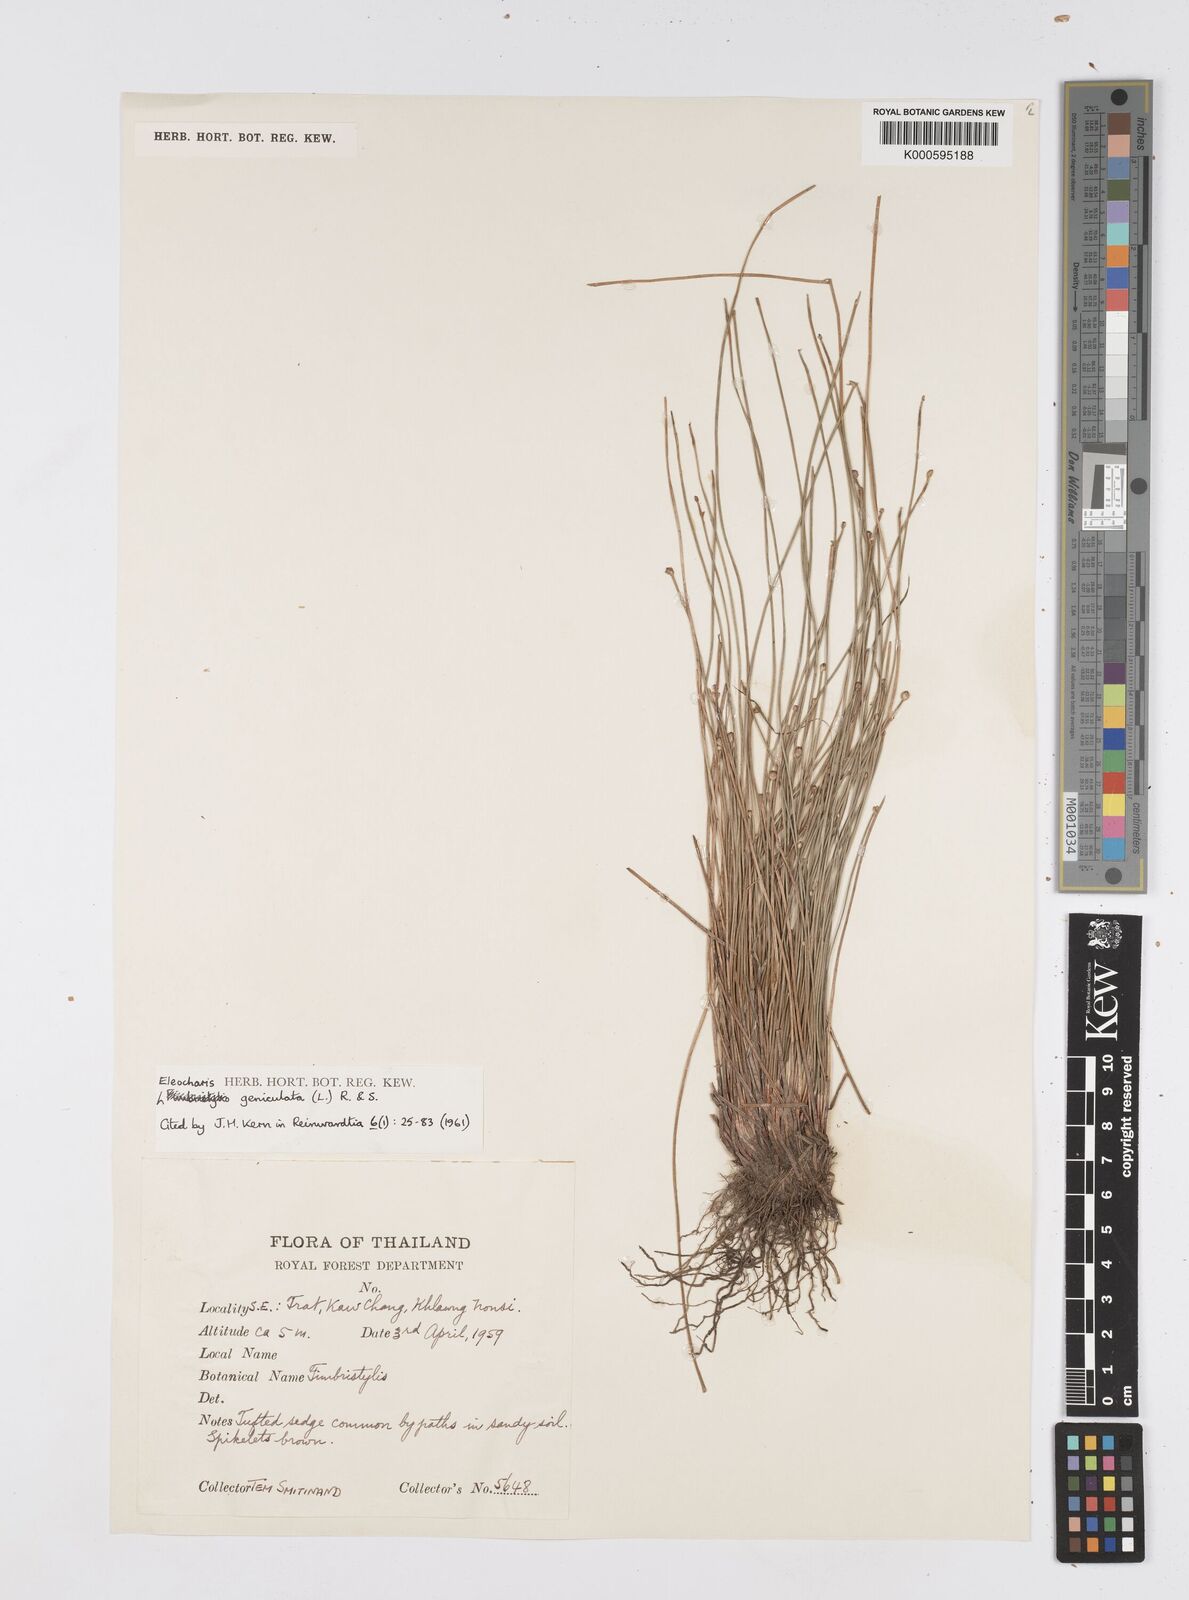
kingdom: Plantae
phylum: Tracheophyta
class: Liliopsida
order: Poales
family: Cyperaceae
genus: Eleocharis
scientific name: Eleocharis geniculata
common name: Canada spikesedge
